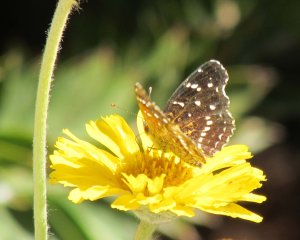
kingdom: Animalia
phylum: Arthropoda
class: Insecta
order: Lepidoptera
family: Nymphalidae
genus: Anthanassa
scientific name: Anthanassa texana
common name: Texan Crescent
